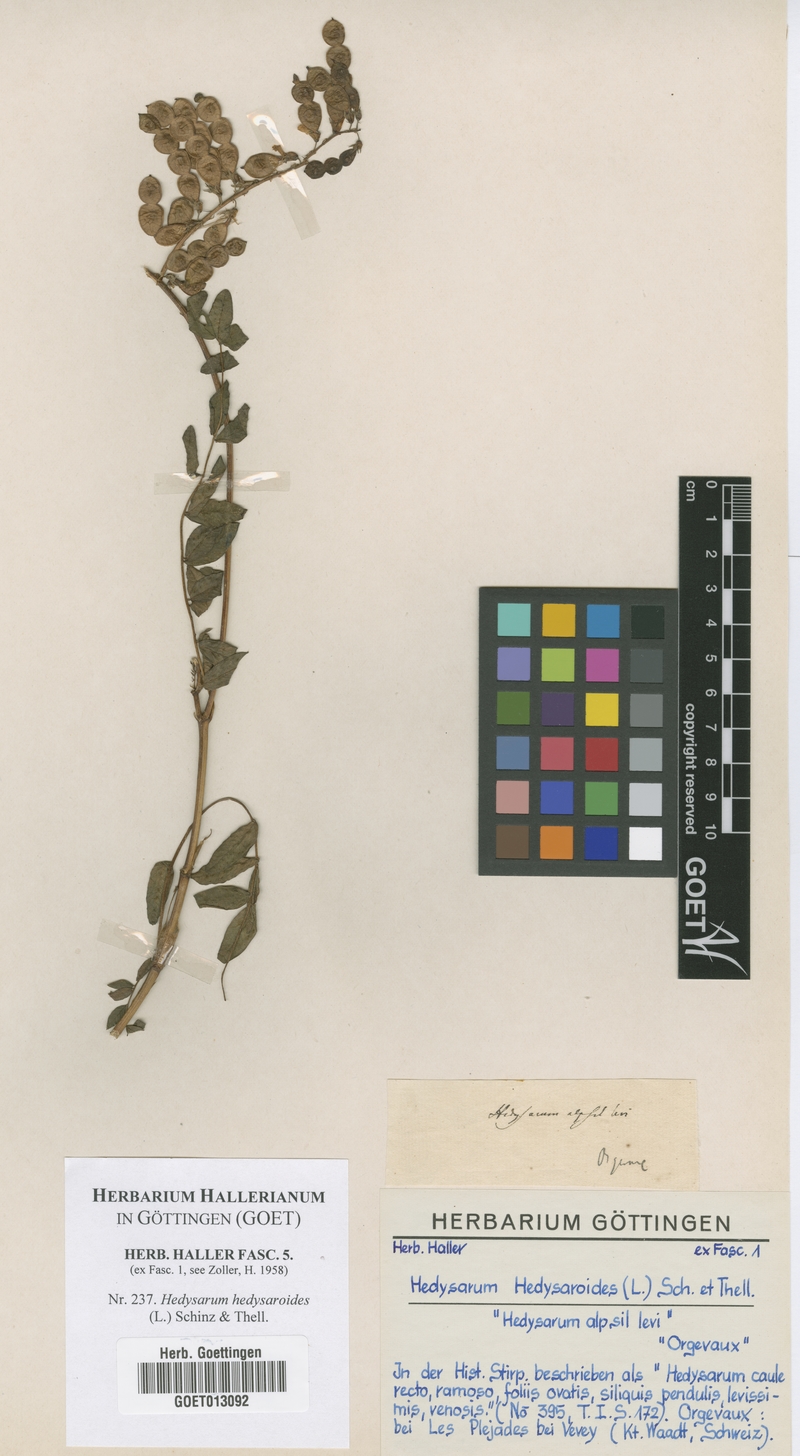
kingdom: Plantae
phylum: Tracheophyta
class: Magnoliopsida
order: Fabales
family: Fabaceae
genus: Hedysarum
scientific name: Hedysarum hedysaroides
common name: Alpine french-honeysuckle
